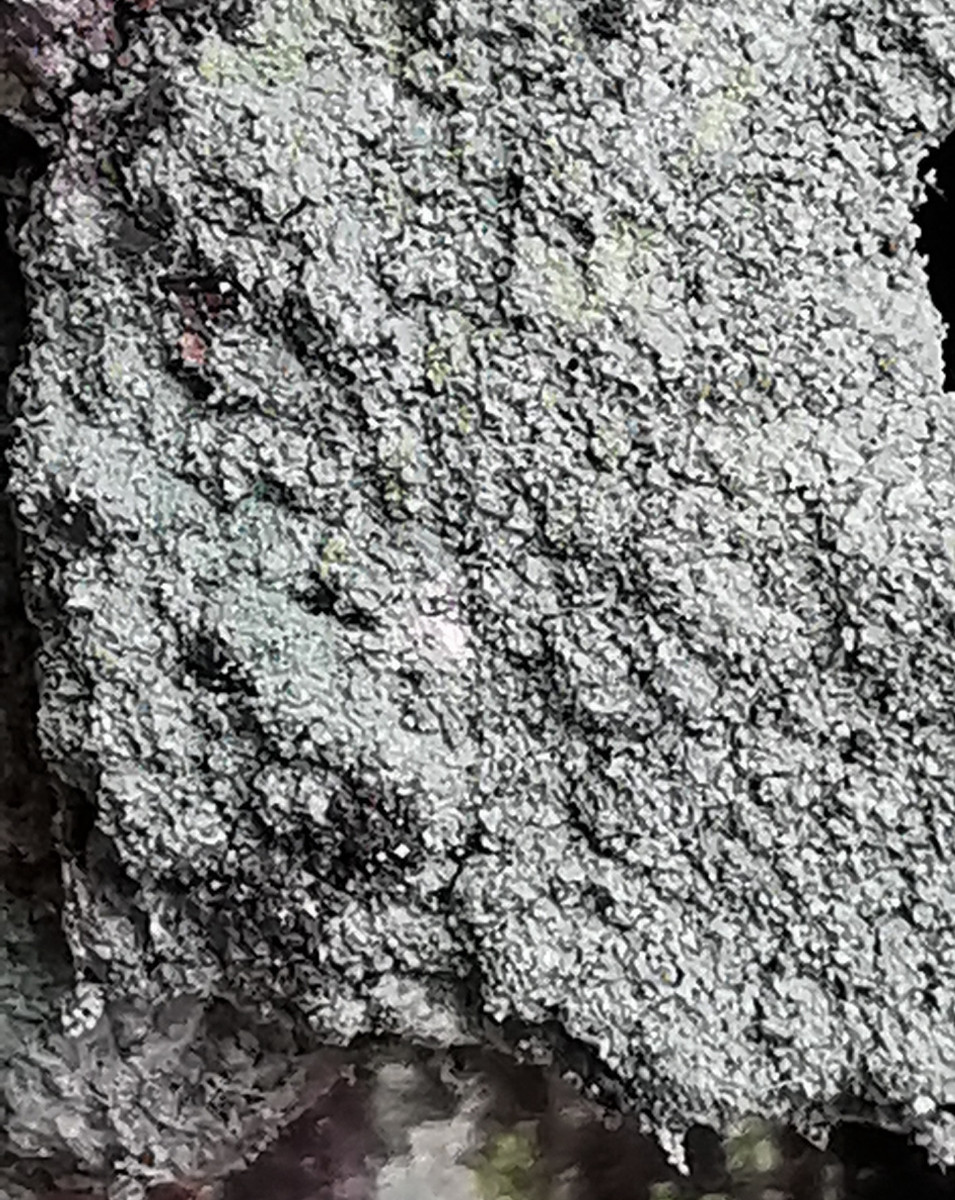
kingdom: Fungi
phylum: Ascomycota
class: Lecanoromycetes
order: Lecanorales
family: Parmeliaceae
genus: Lichen
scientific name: Lichen
